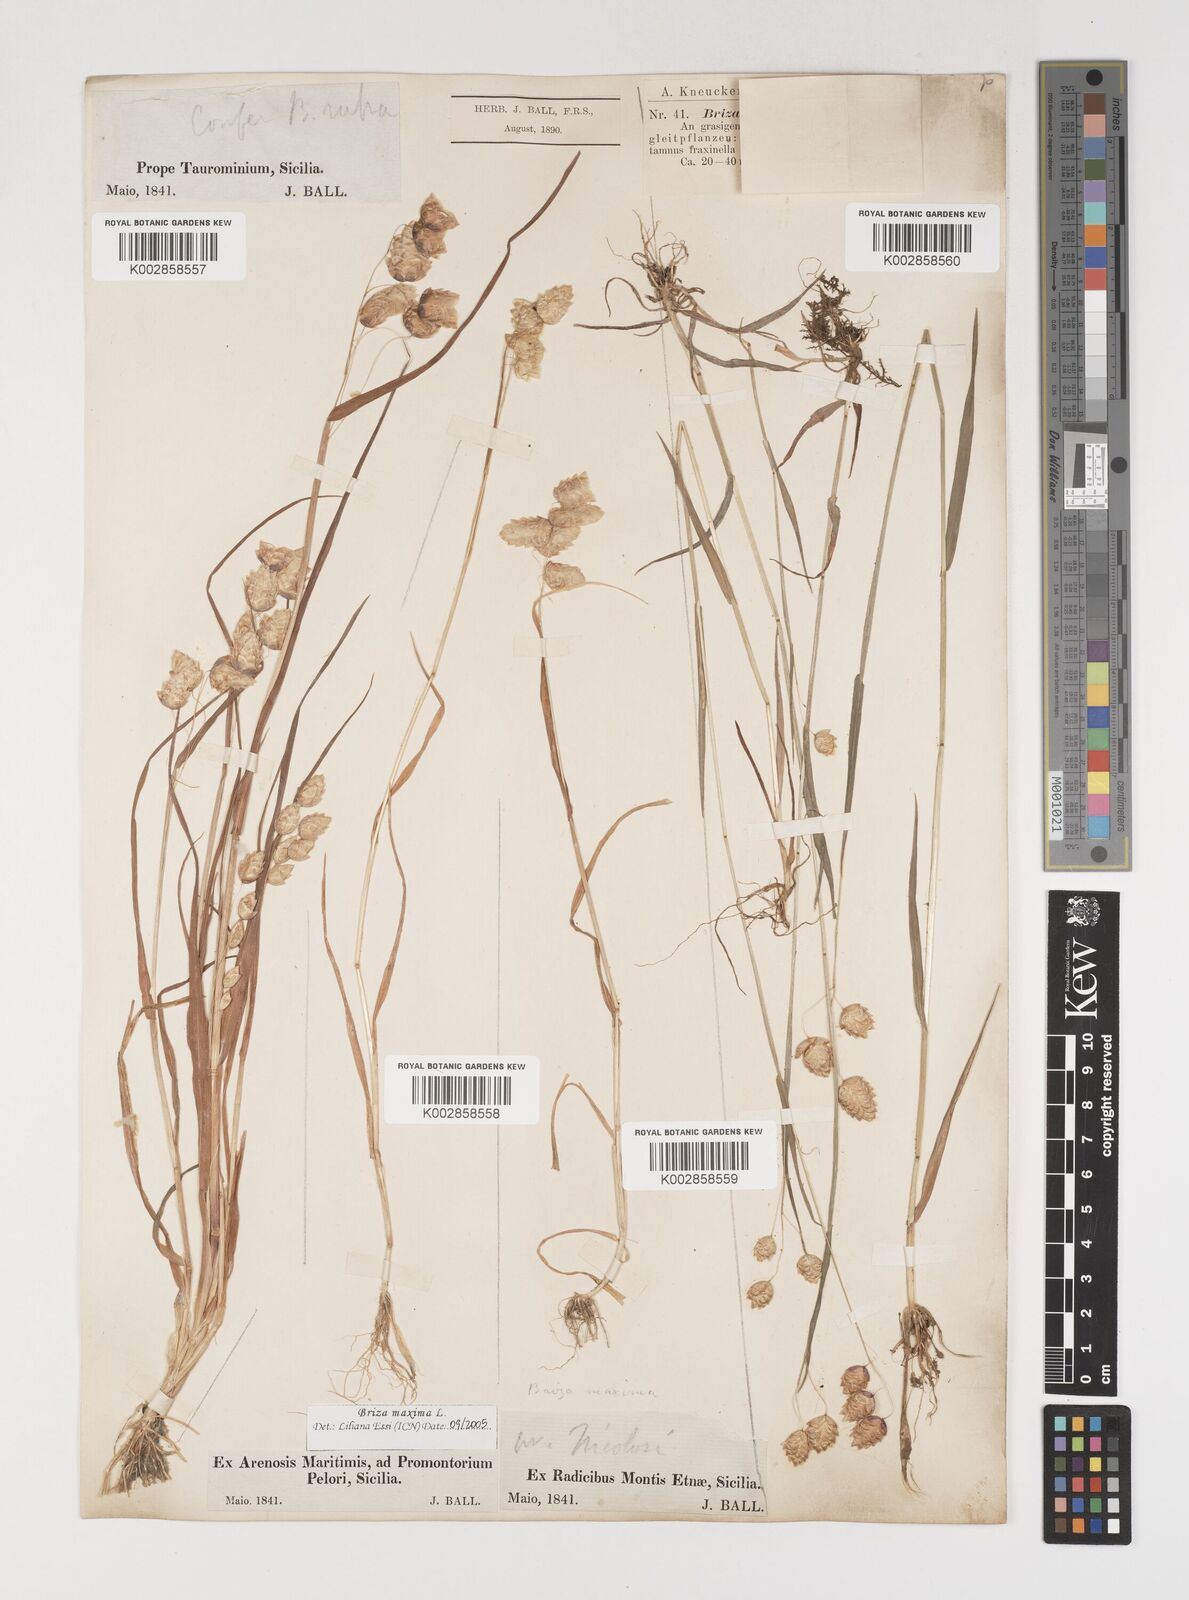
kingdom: Plantae
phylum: Tracheophyta
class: Liliopsida
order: Poales
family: Poaceae
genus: Briza
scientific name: Briza maxima
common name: Big quakinggrass
